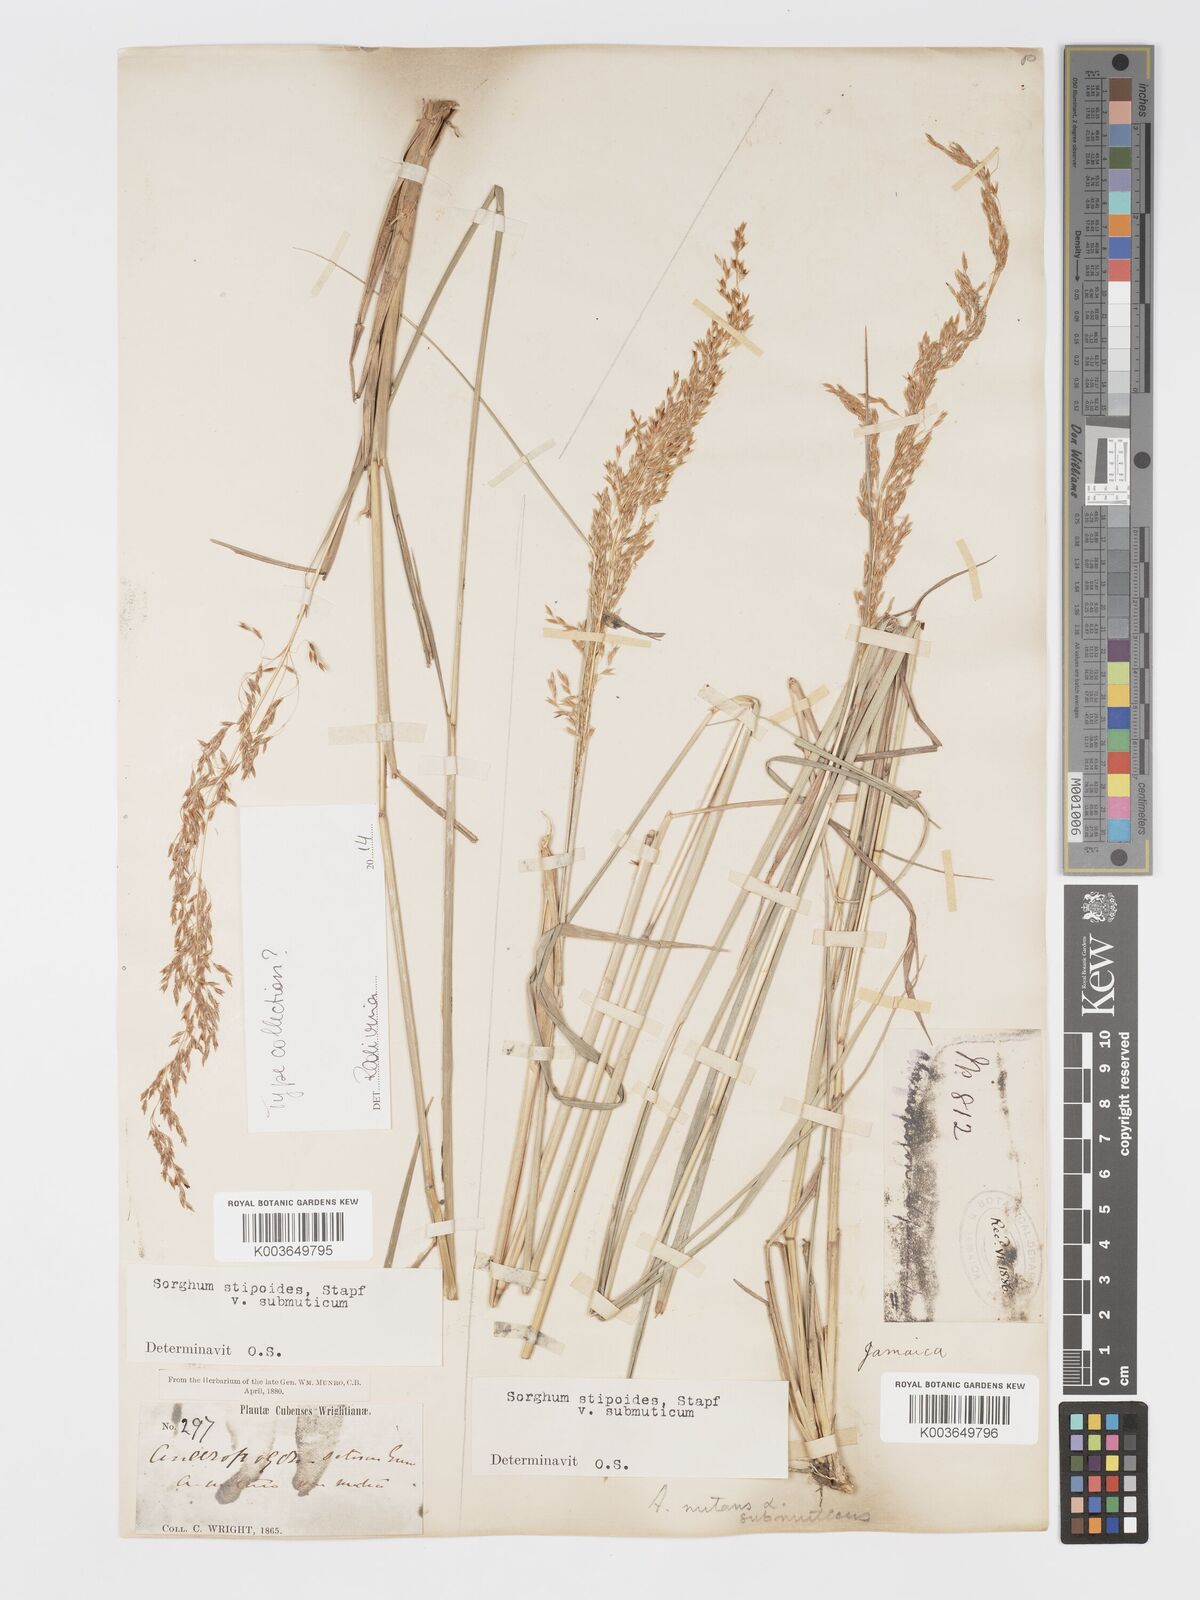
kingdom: Plantae
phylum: Tracheophyta
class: Liliopsida
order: Poales
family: Poaceae
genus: Sorghastrum
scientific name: Sorghastrum setosum
